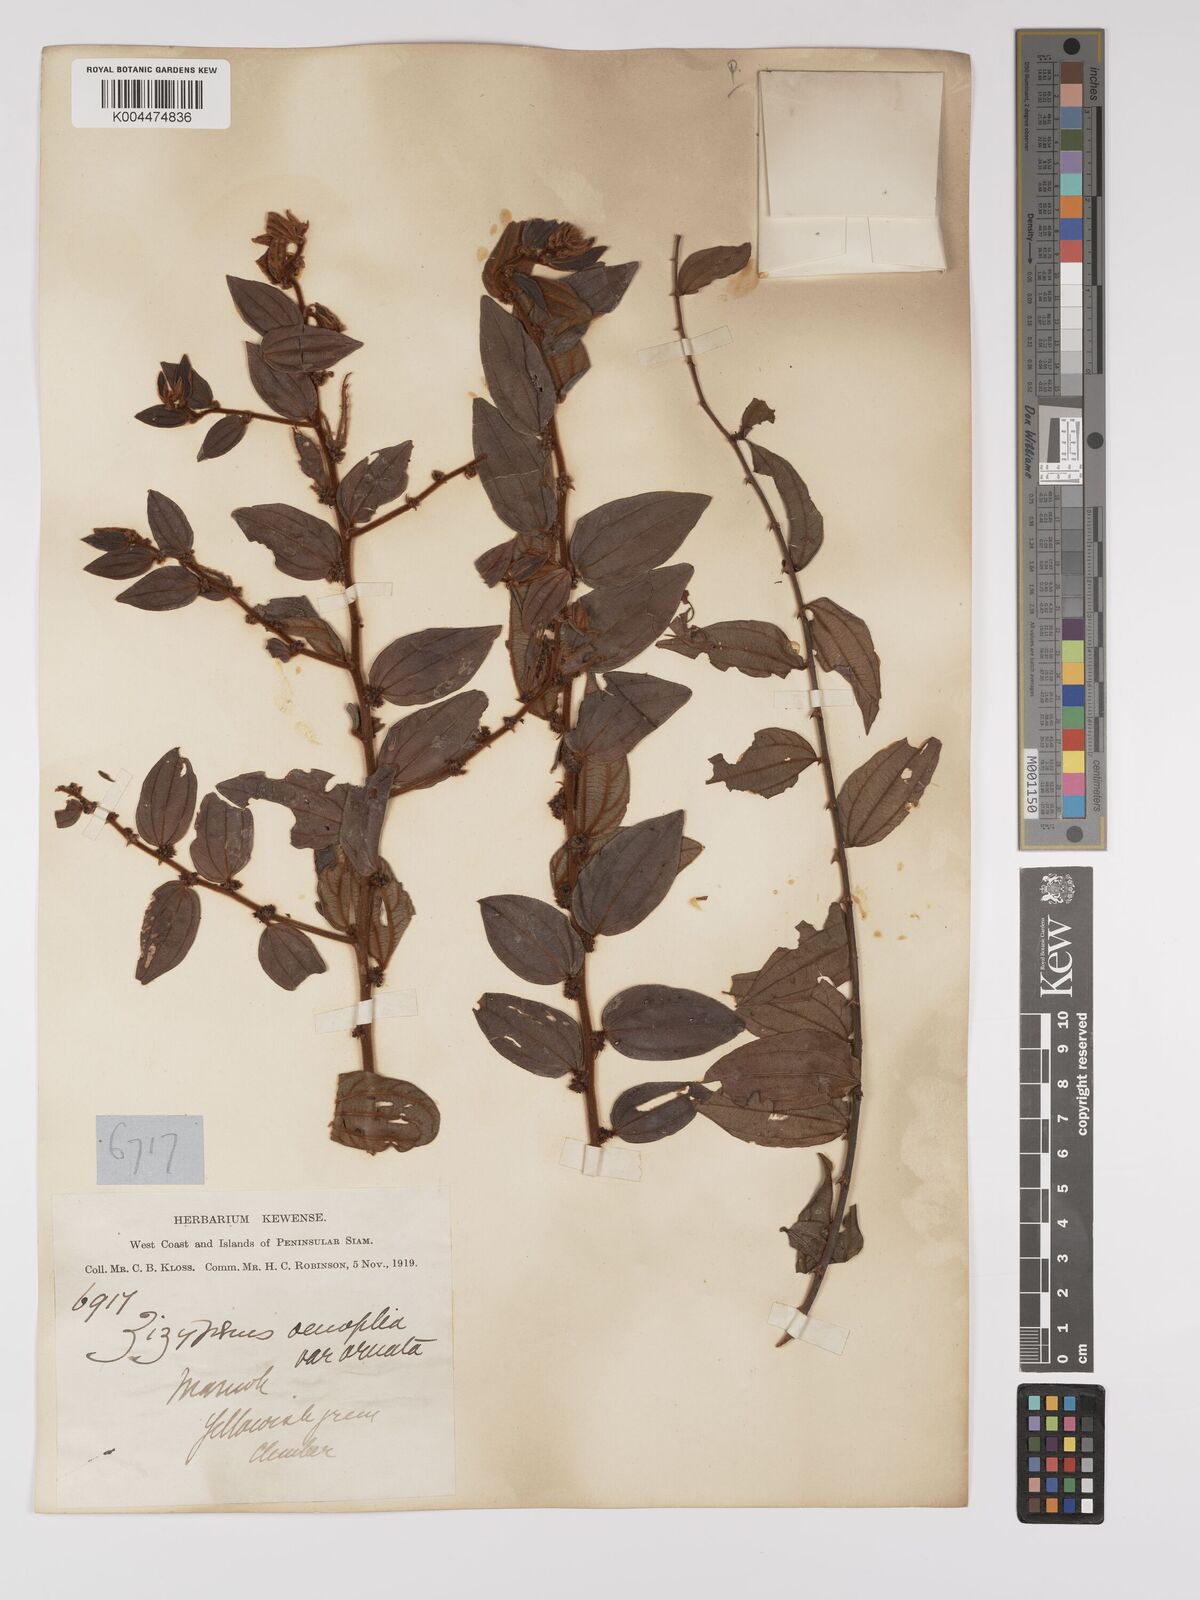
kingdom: Plantae
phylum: Tracheophyta
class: Magnoliopsida
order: Rosales
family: Rhamnaceae
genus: Ziziphus
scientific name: Ziziphus oenopolia
